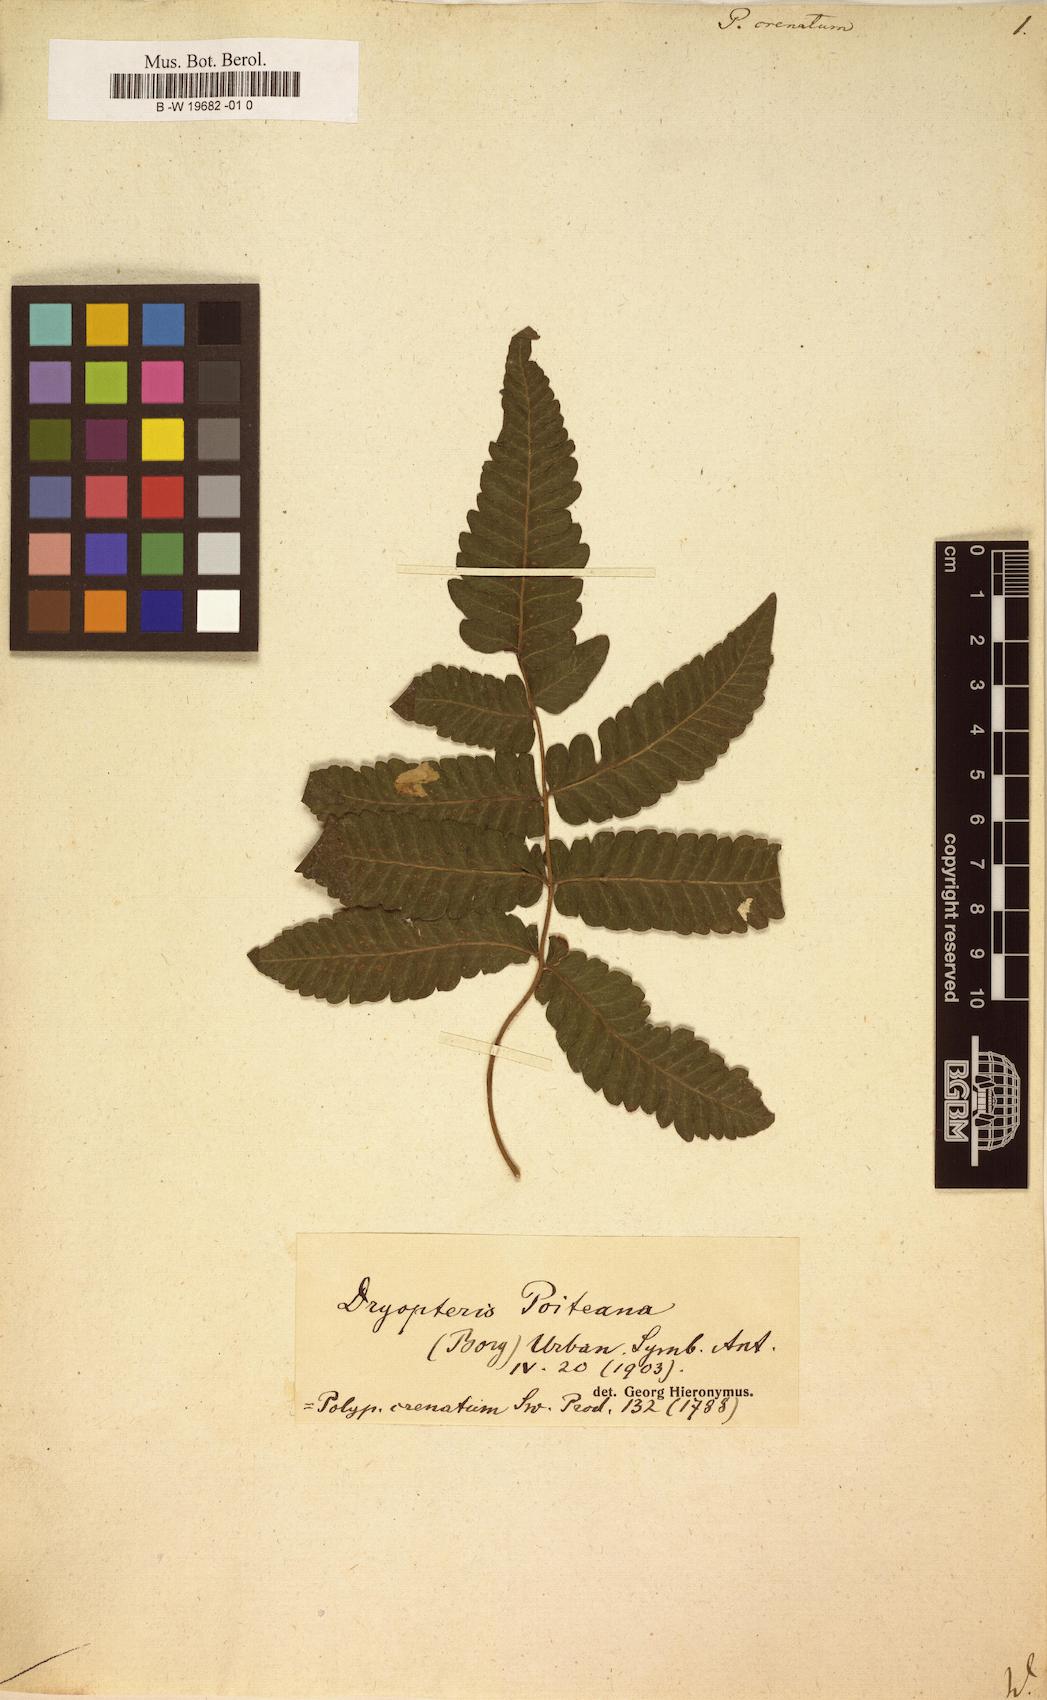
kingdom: Plantae
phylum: Tracheophyta
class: Polypodiopsida
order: Polypodiales
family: Thelypteridaceae
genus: Goniopteris
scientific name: Goniopteris poiteana
